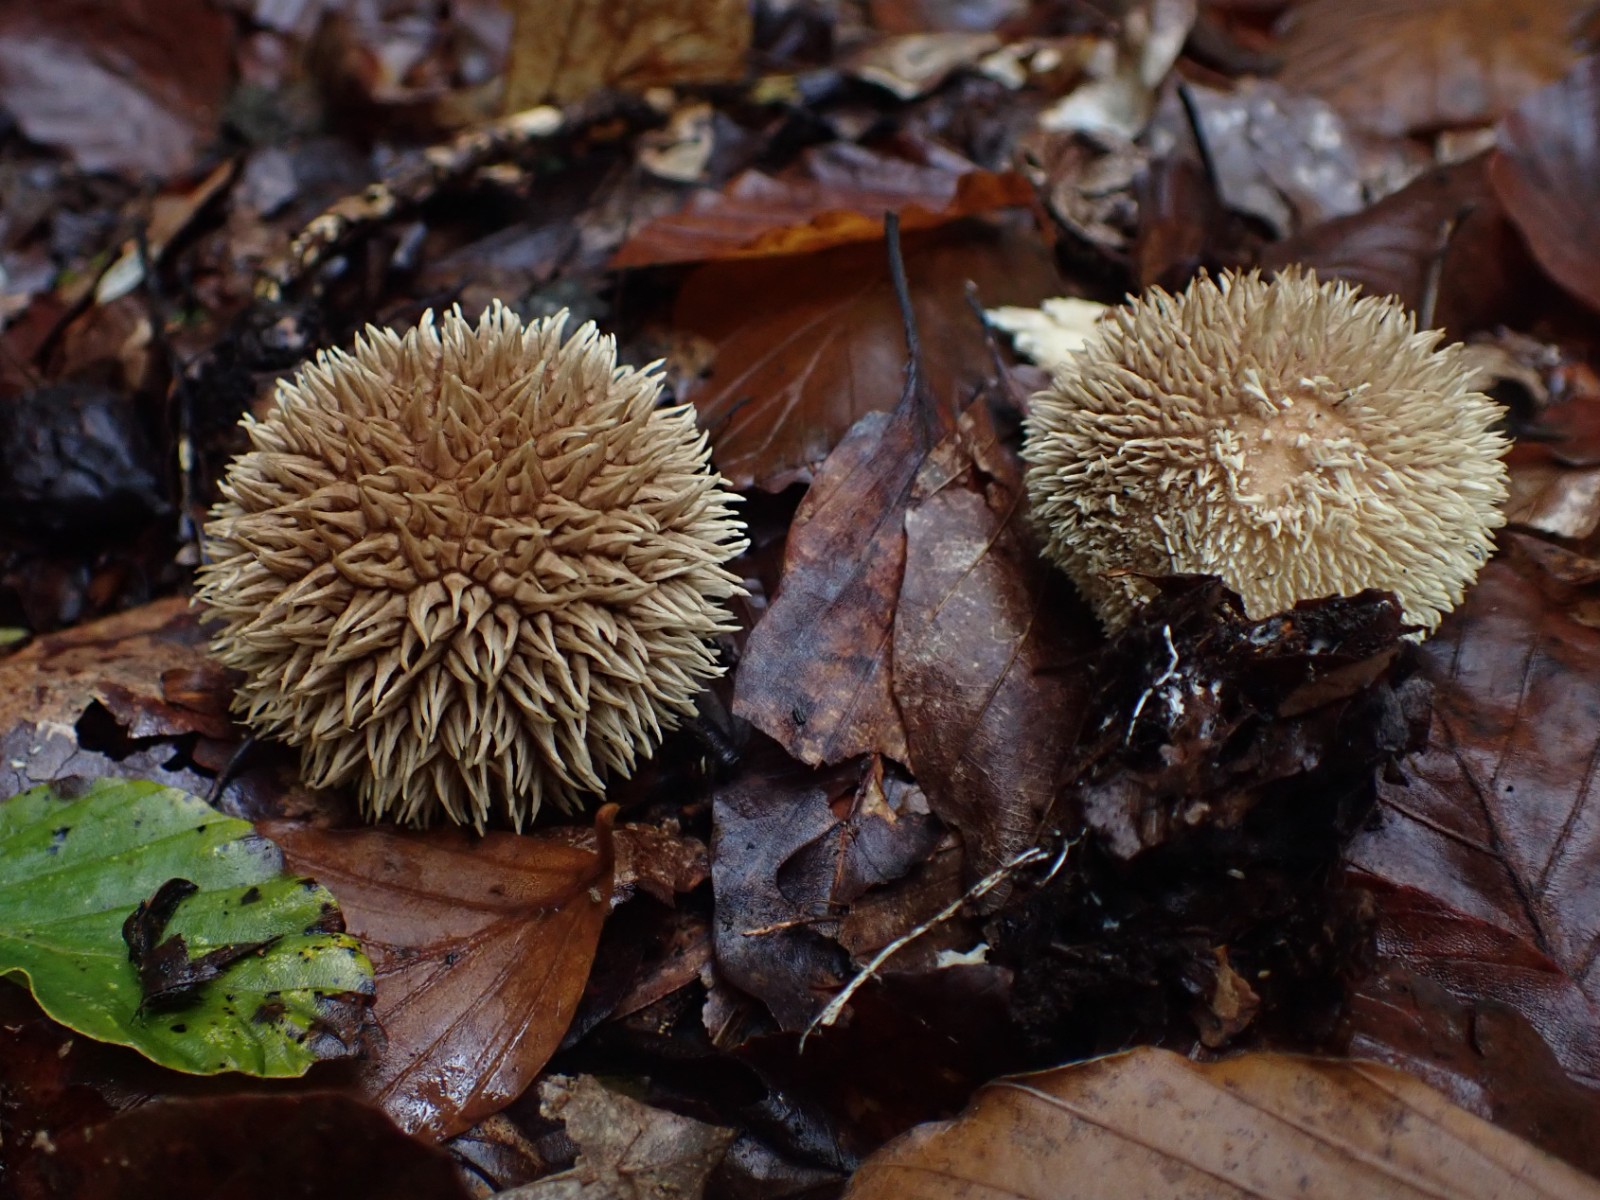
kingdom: Fungi
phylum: Basidiomycota
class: Agaricomycetes
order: Agaricales
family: Lycoperdaceae
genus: Lycoperdon
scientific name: Lycoperdon echinatum
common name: pindsvine-støvbold
